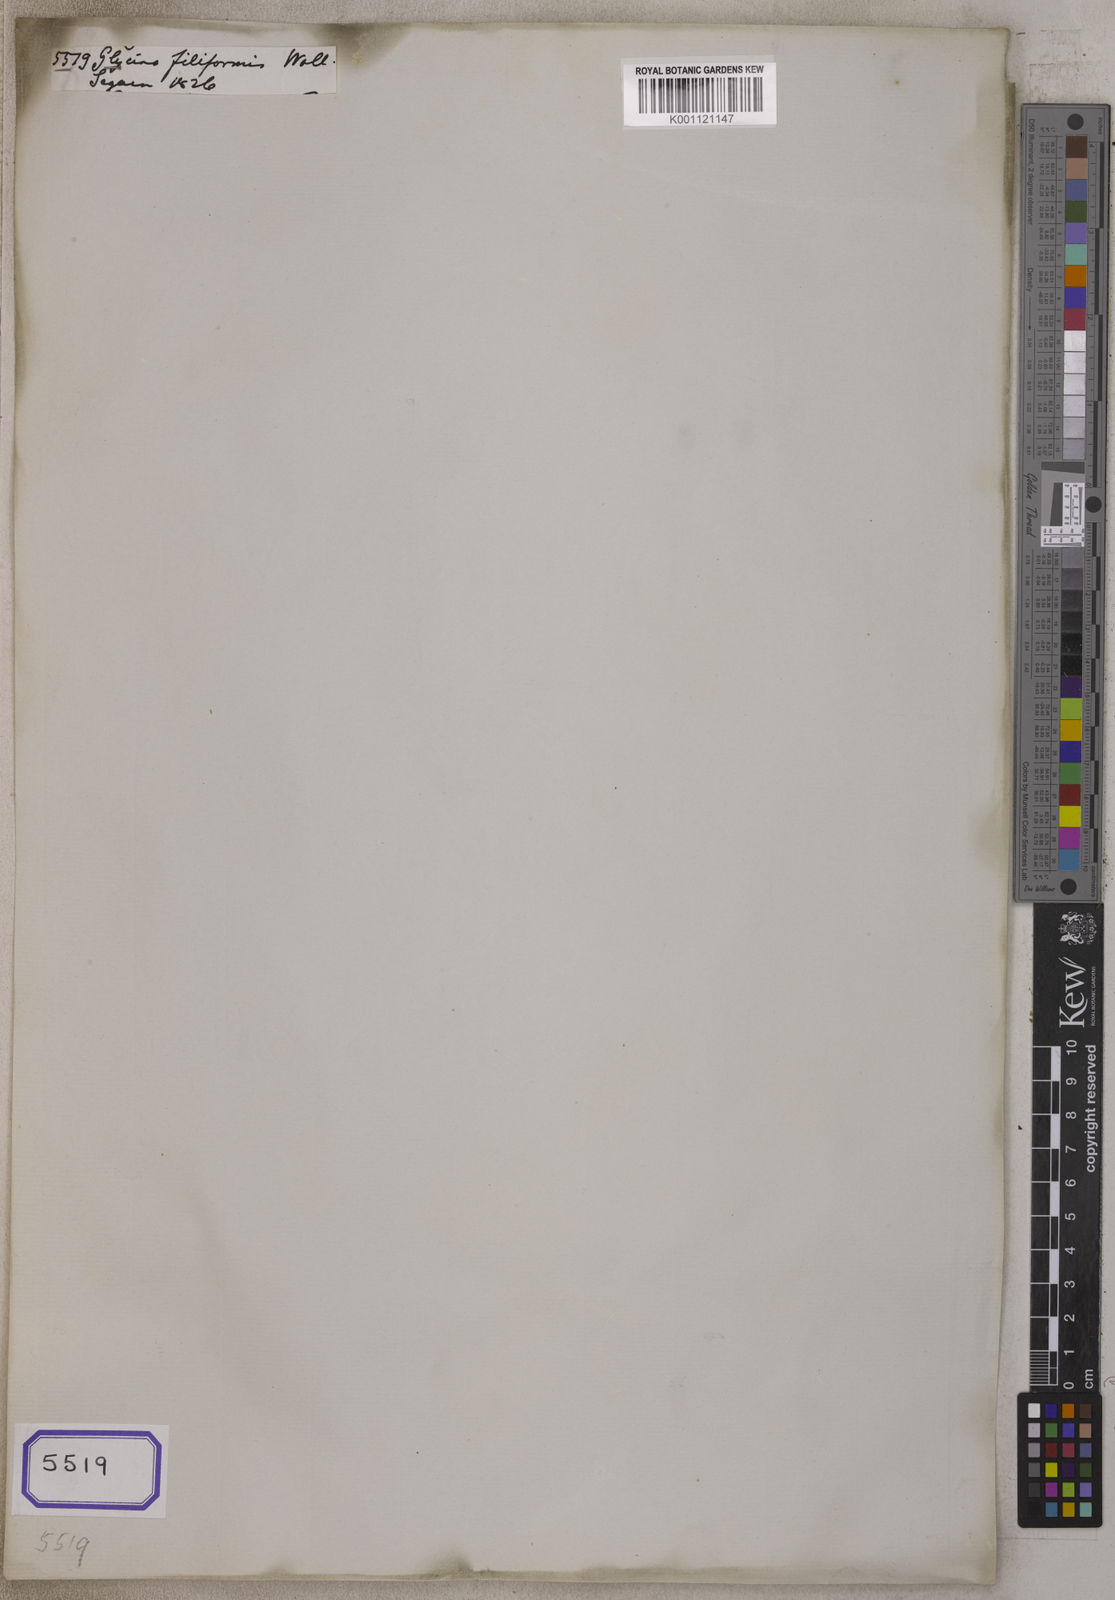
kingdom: Plantae
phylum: Tracheophyta
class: Magnoliopsida
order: Fabales
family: Fabaceae
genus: Teramnus
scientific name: Teramnus labialis
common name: Blue wiss
